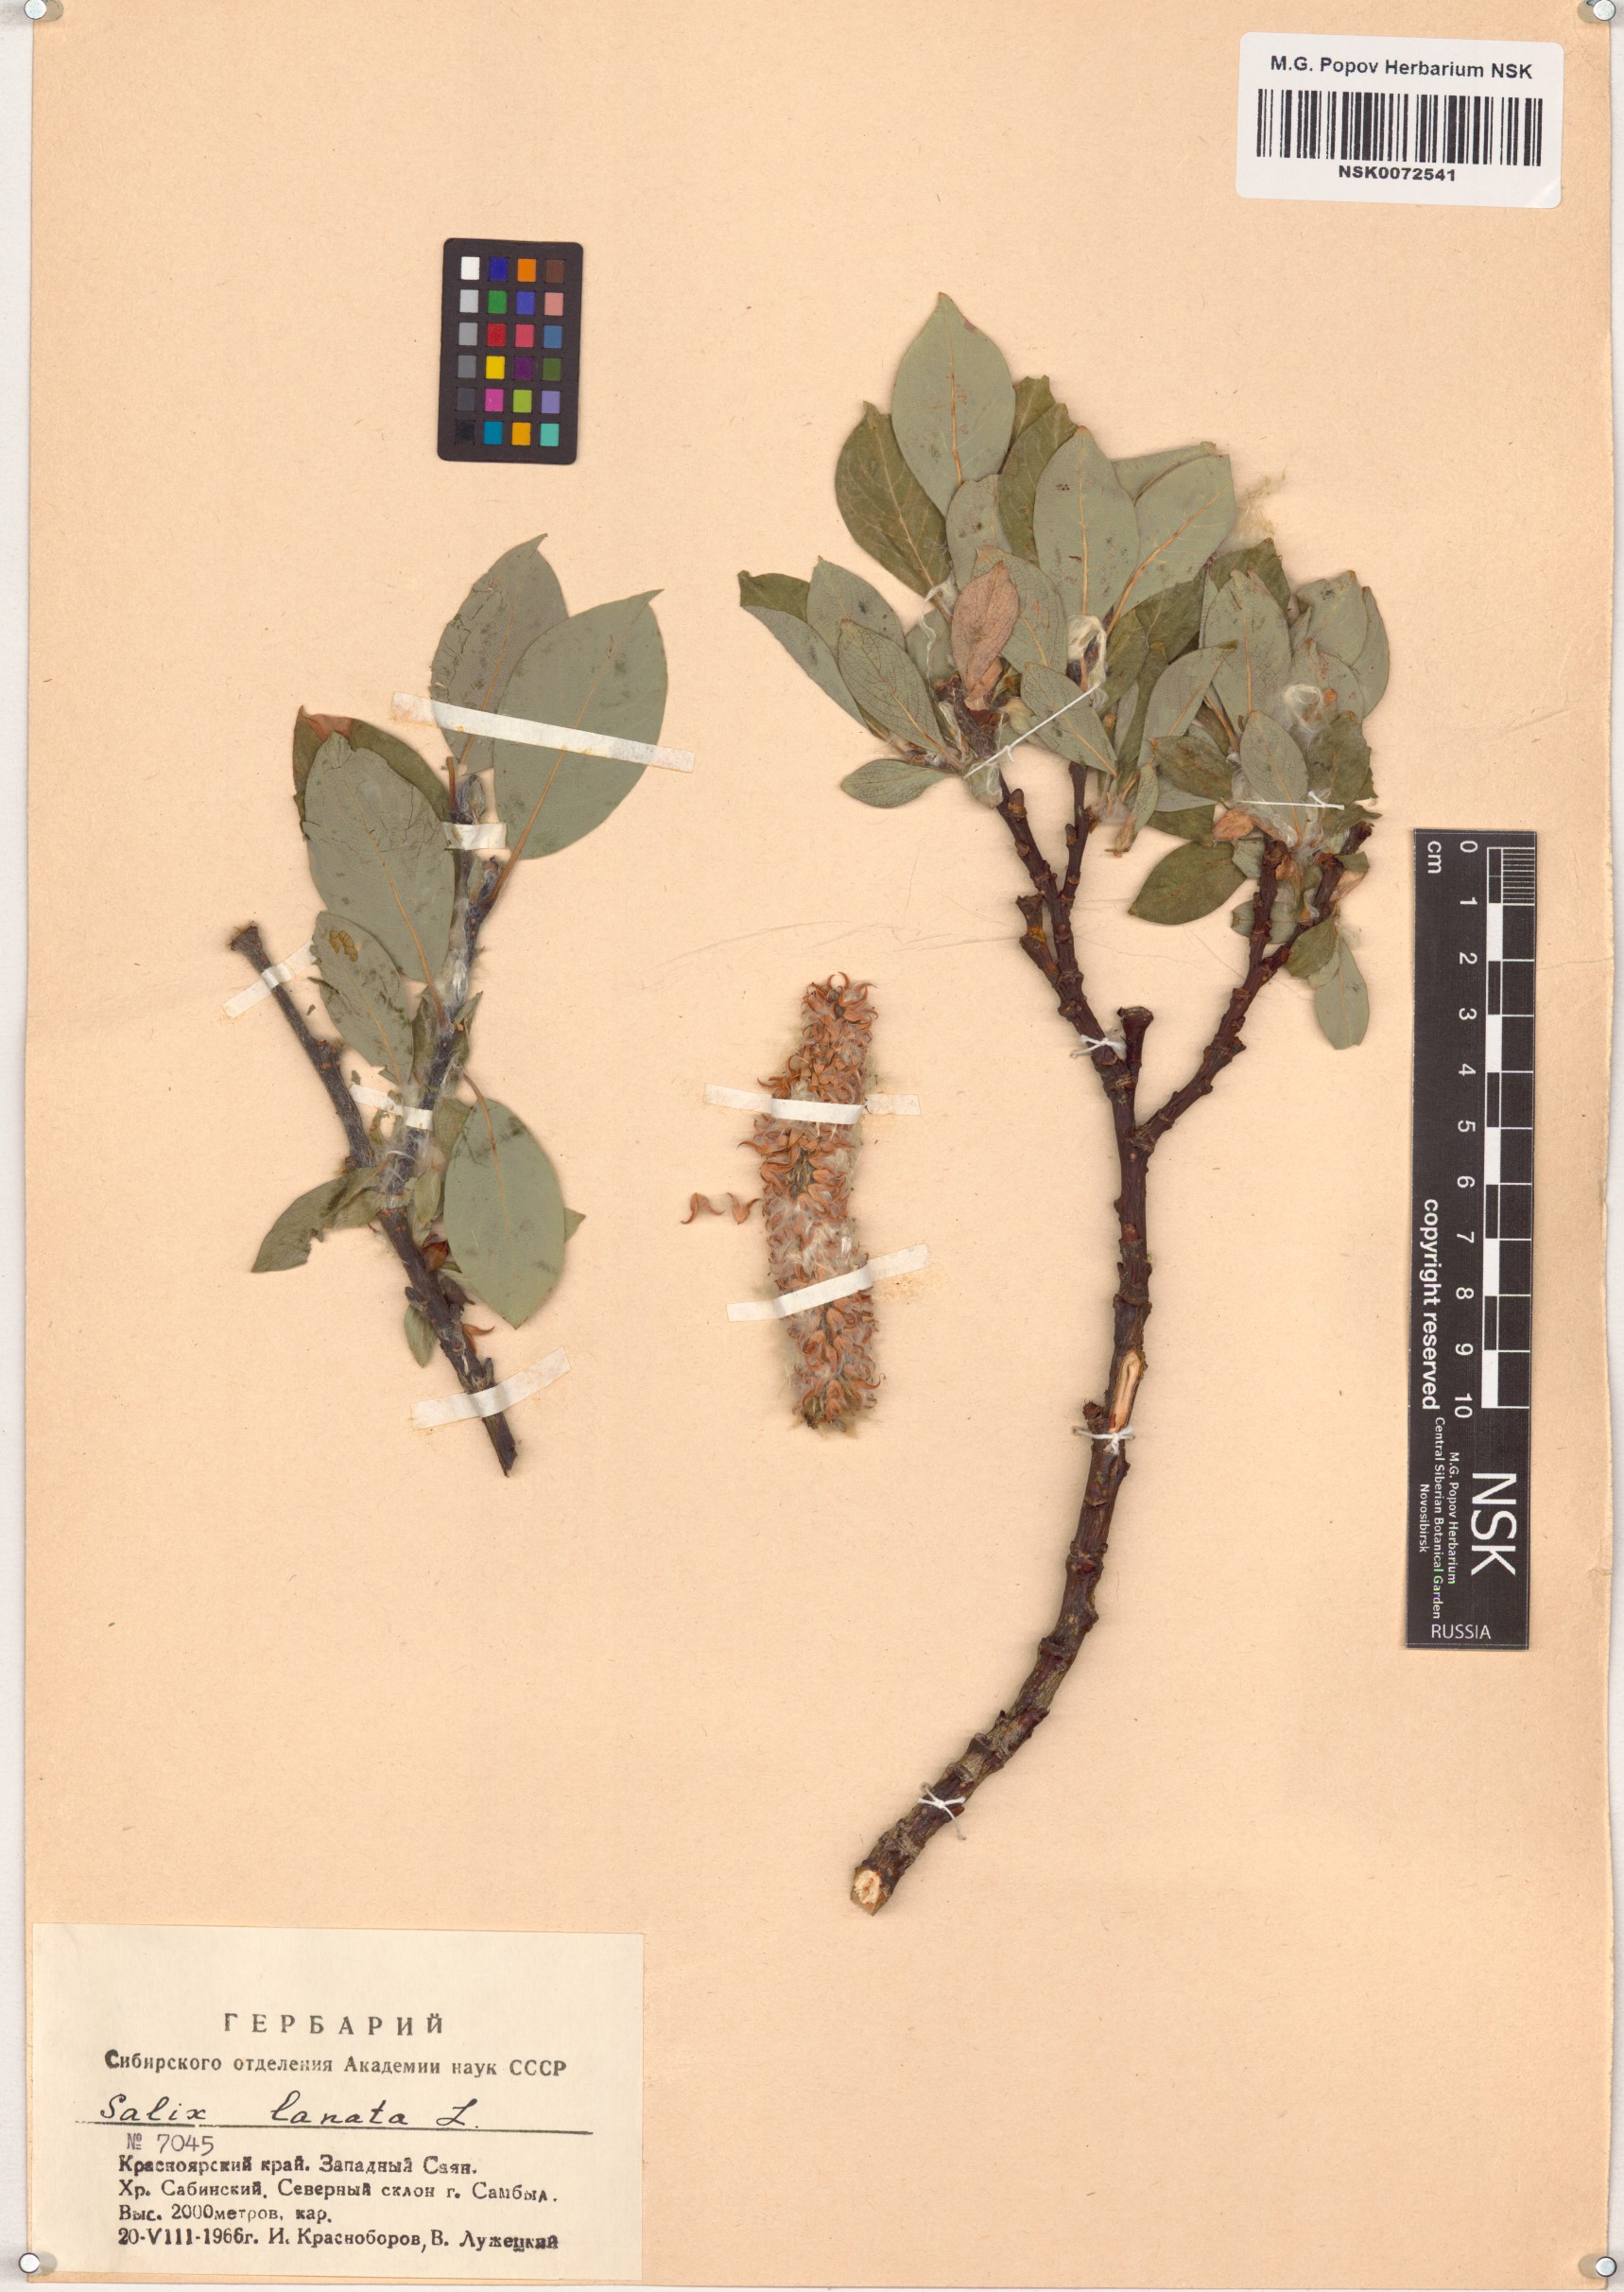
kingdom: Plantae
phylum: Tracheophyta
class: Magnoliopsida
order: Malpighiales
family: Salicaceae
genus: Salix
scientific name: Salix lanata
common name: Woolly willow
